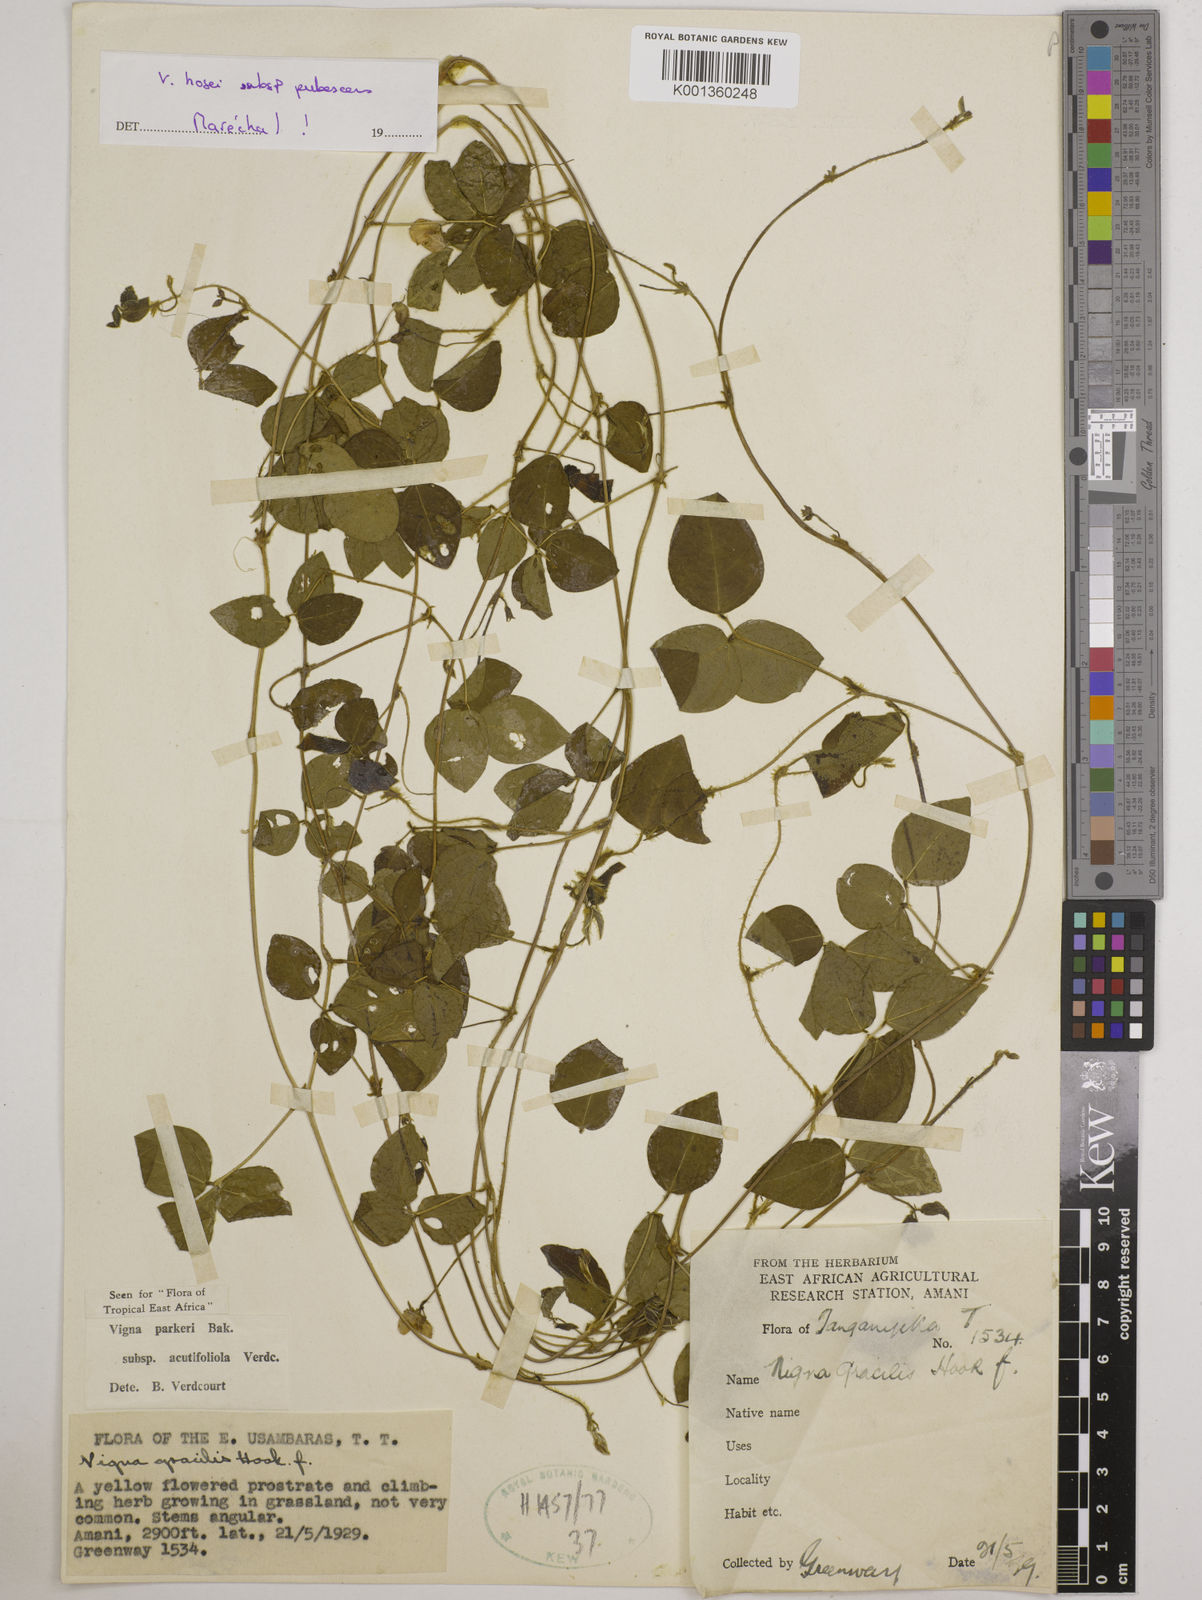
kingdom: Plantae
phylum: Tracheophyta
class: Magnoliopsida
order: Fabales
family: Fabaceae
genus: Vigna
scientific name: Vigna
